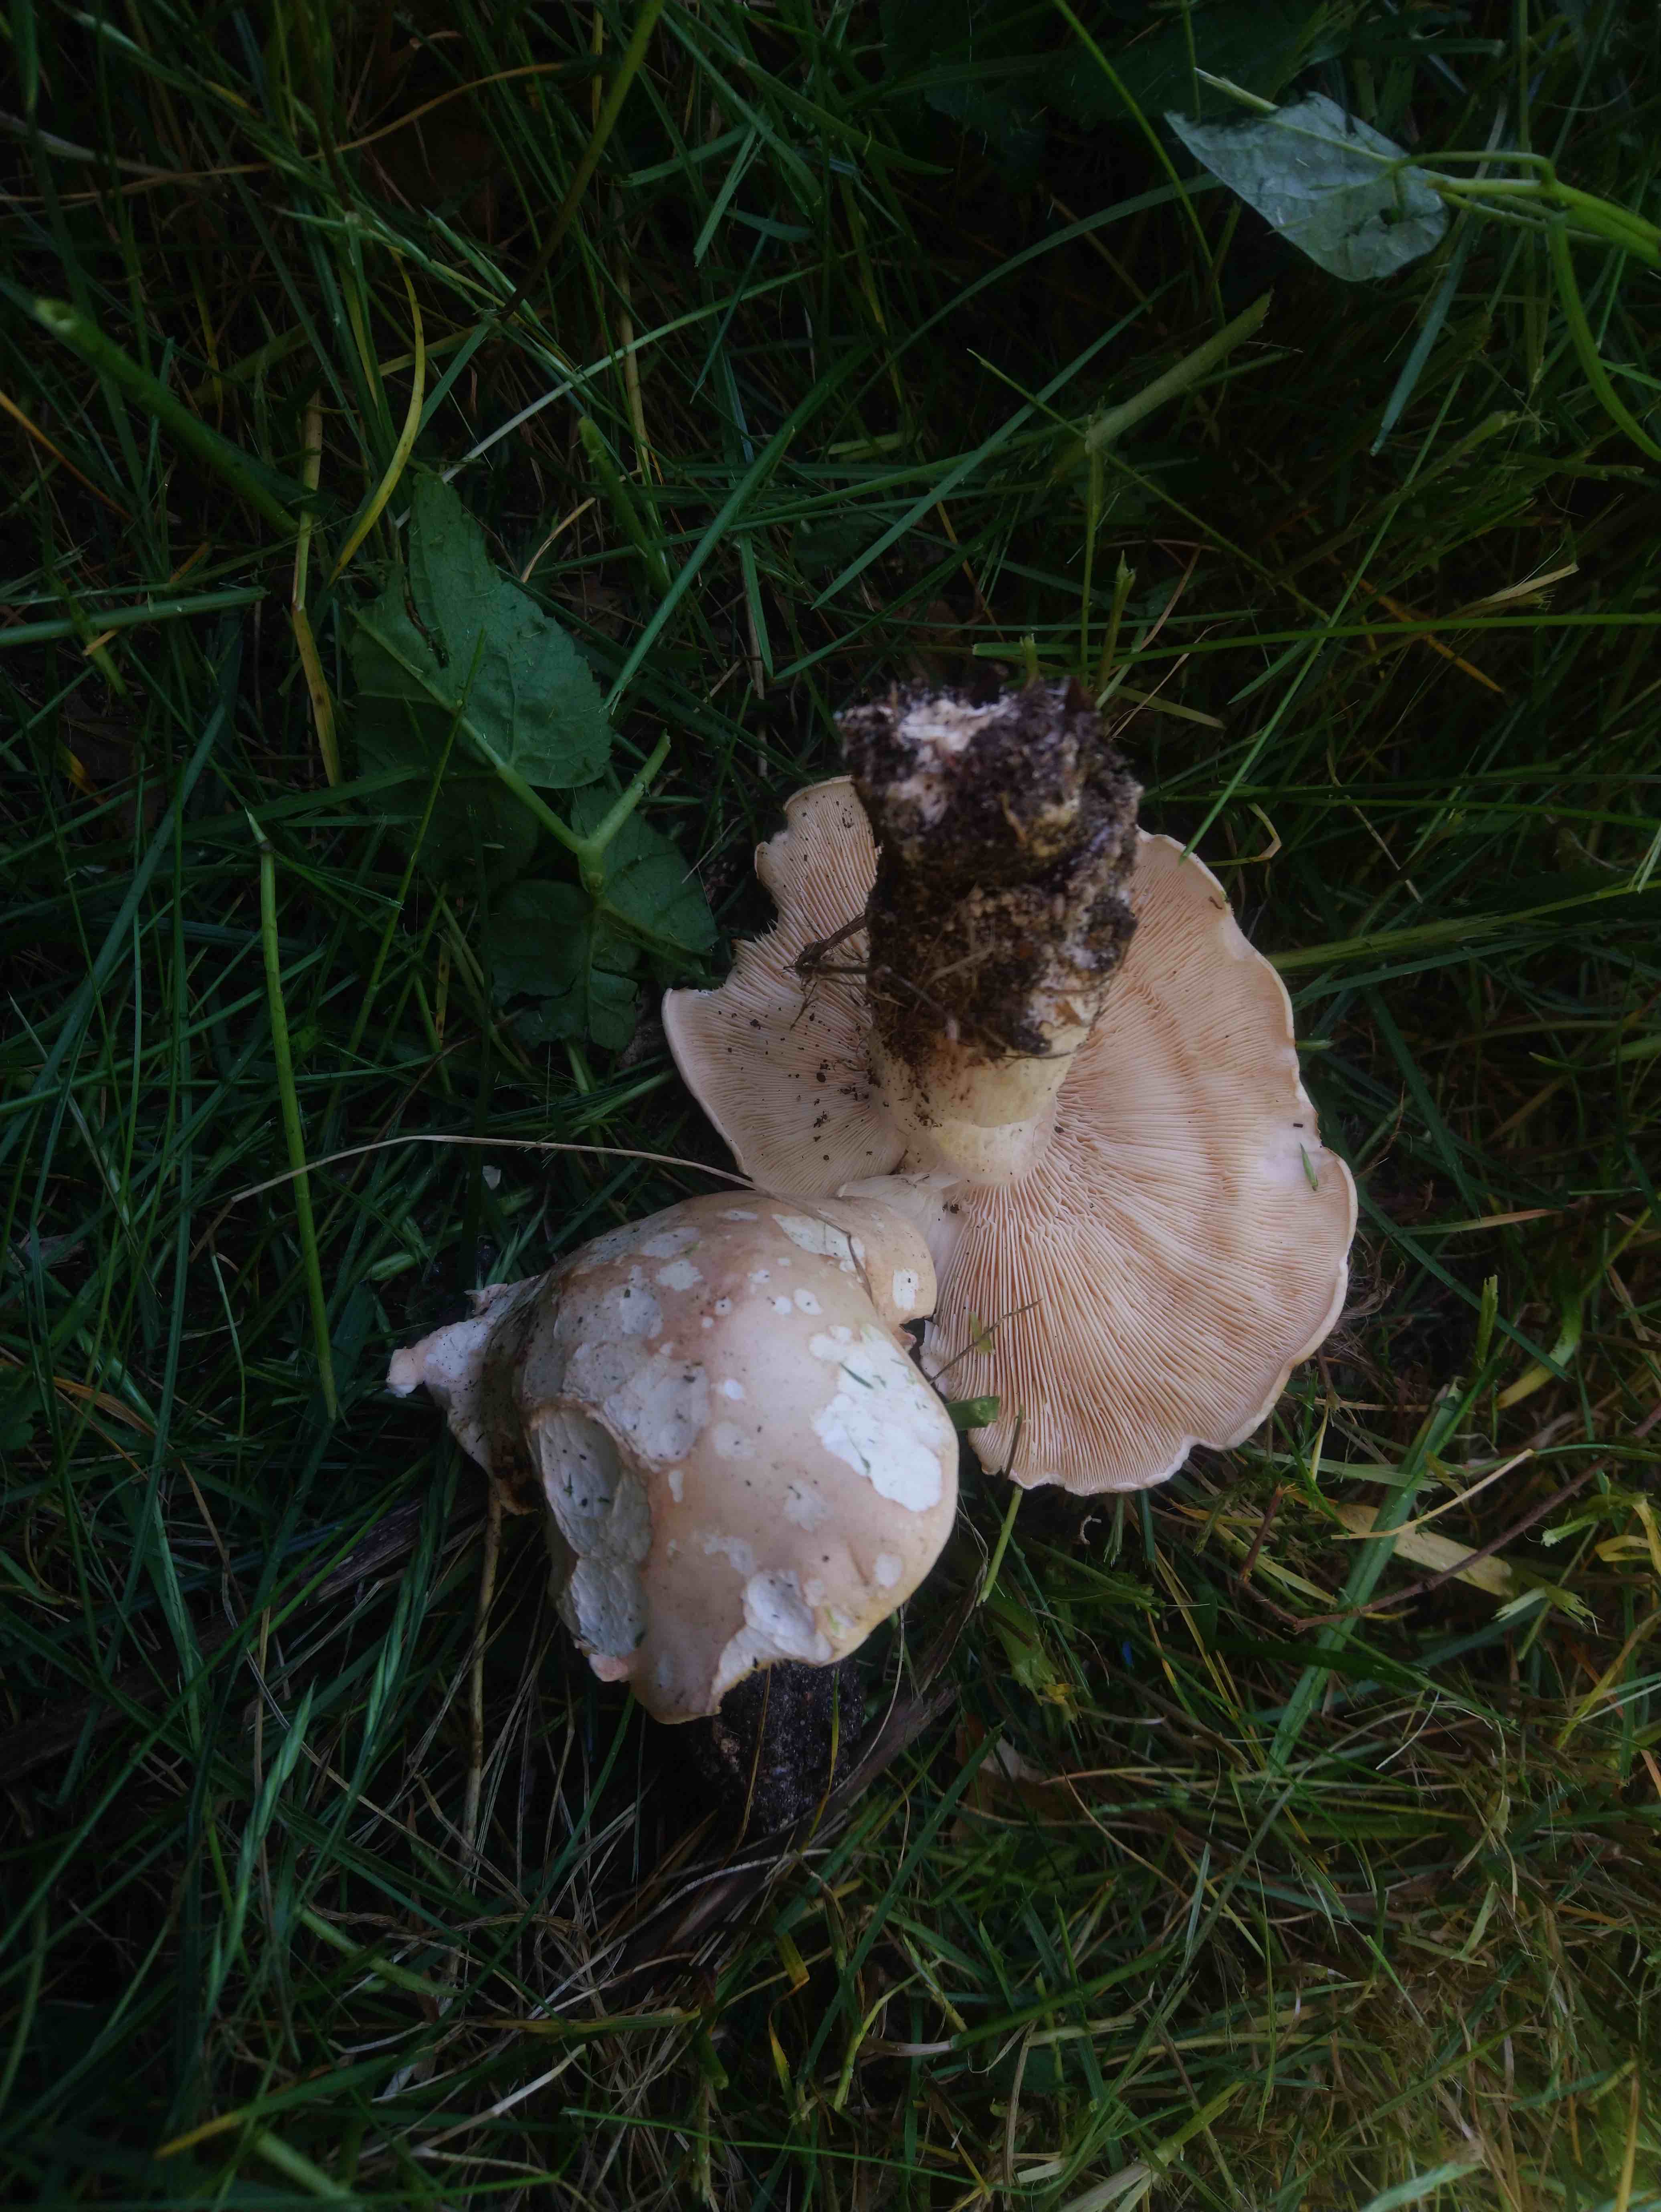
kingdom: Fungi
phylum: Basidiomycota
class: Agaricomycetes
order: Agaricales
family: Lyophyllaceae
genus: Calocybe
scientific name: Calocybe gambosa
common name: vårmusseron
